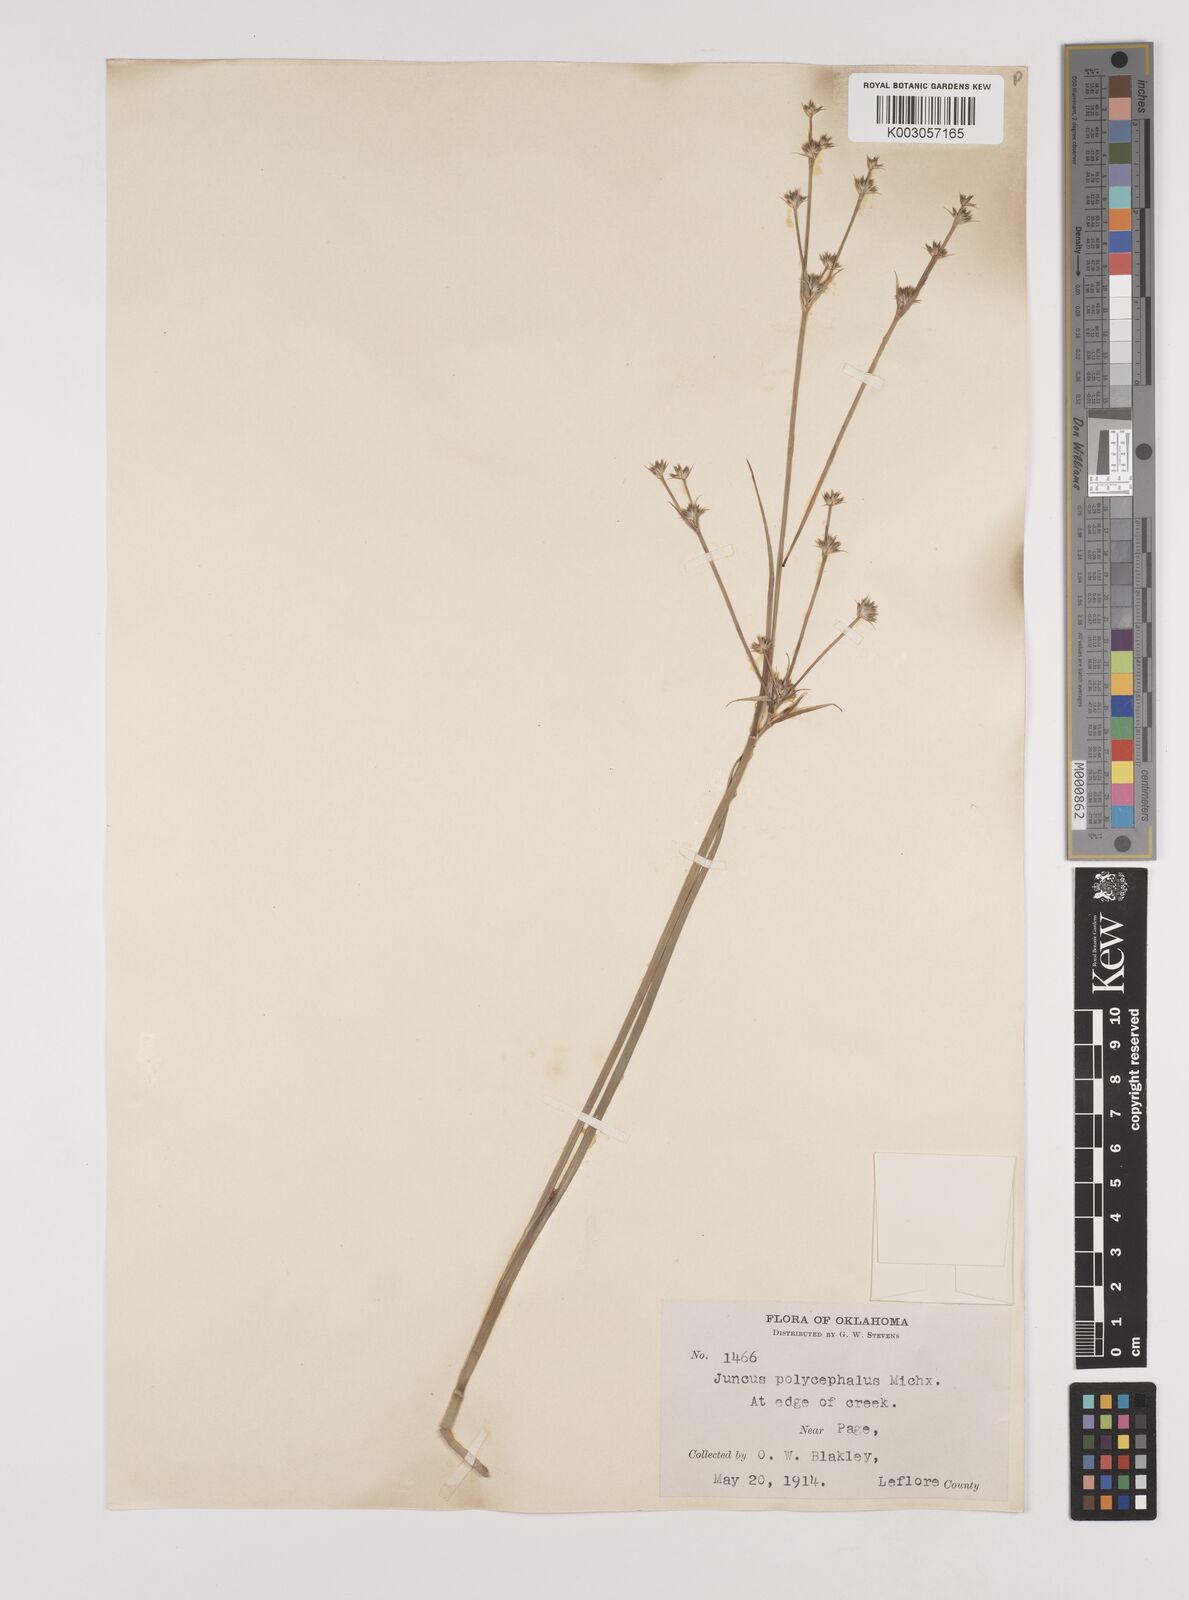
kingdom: Plantae
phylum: Tracheophyta
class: Liliopsida
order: Poales
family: Juncaceae
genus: Juncus
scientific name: Juncus articulatus
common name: Jointed rush
